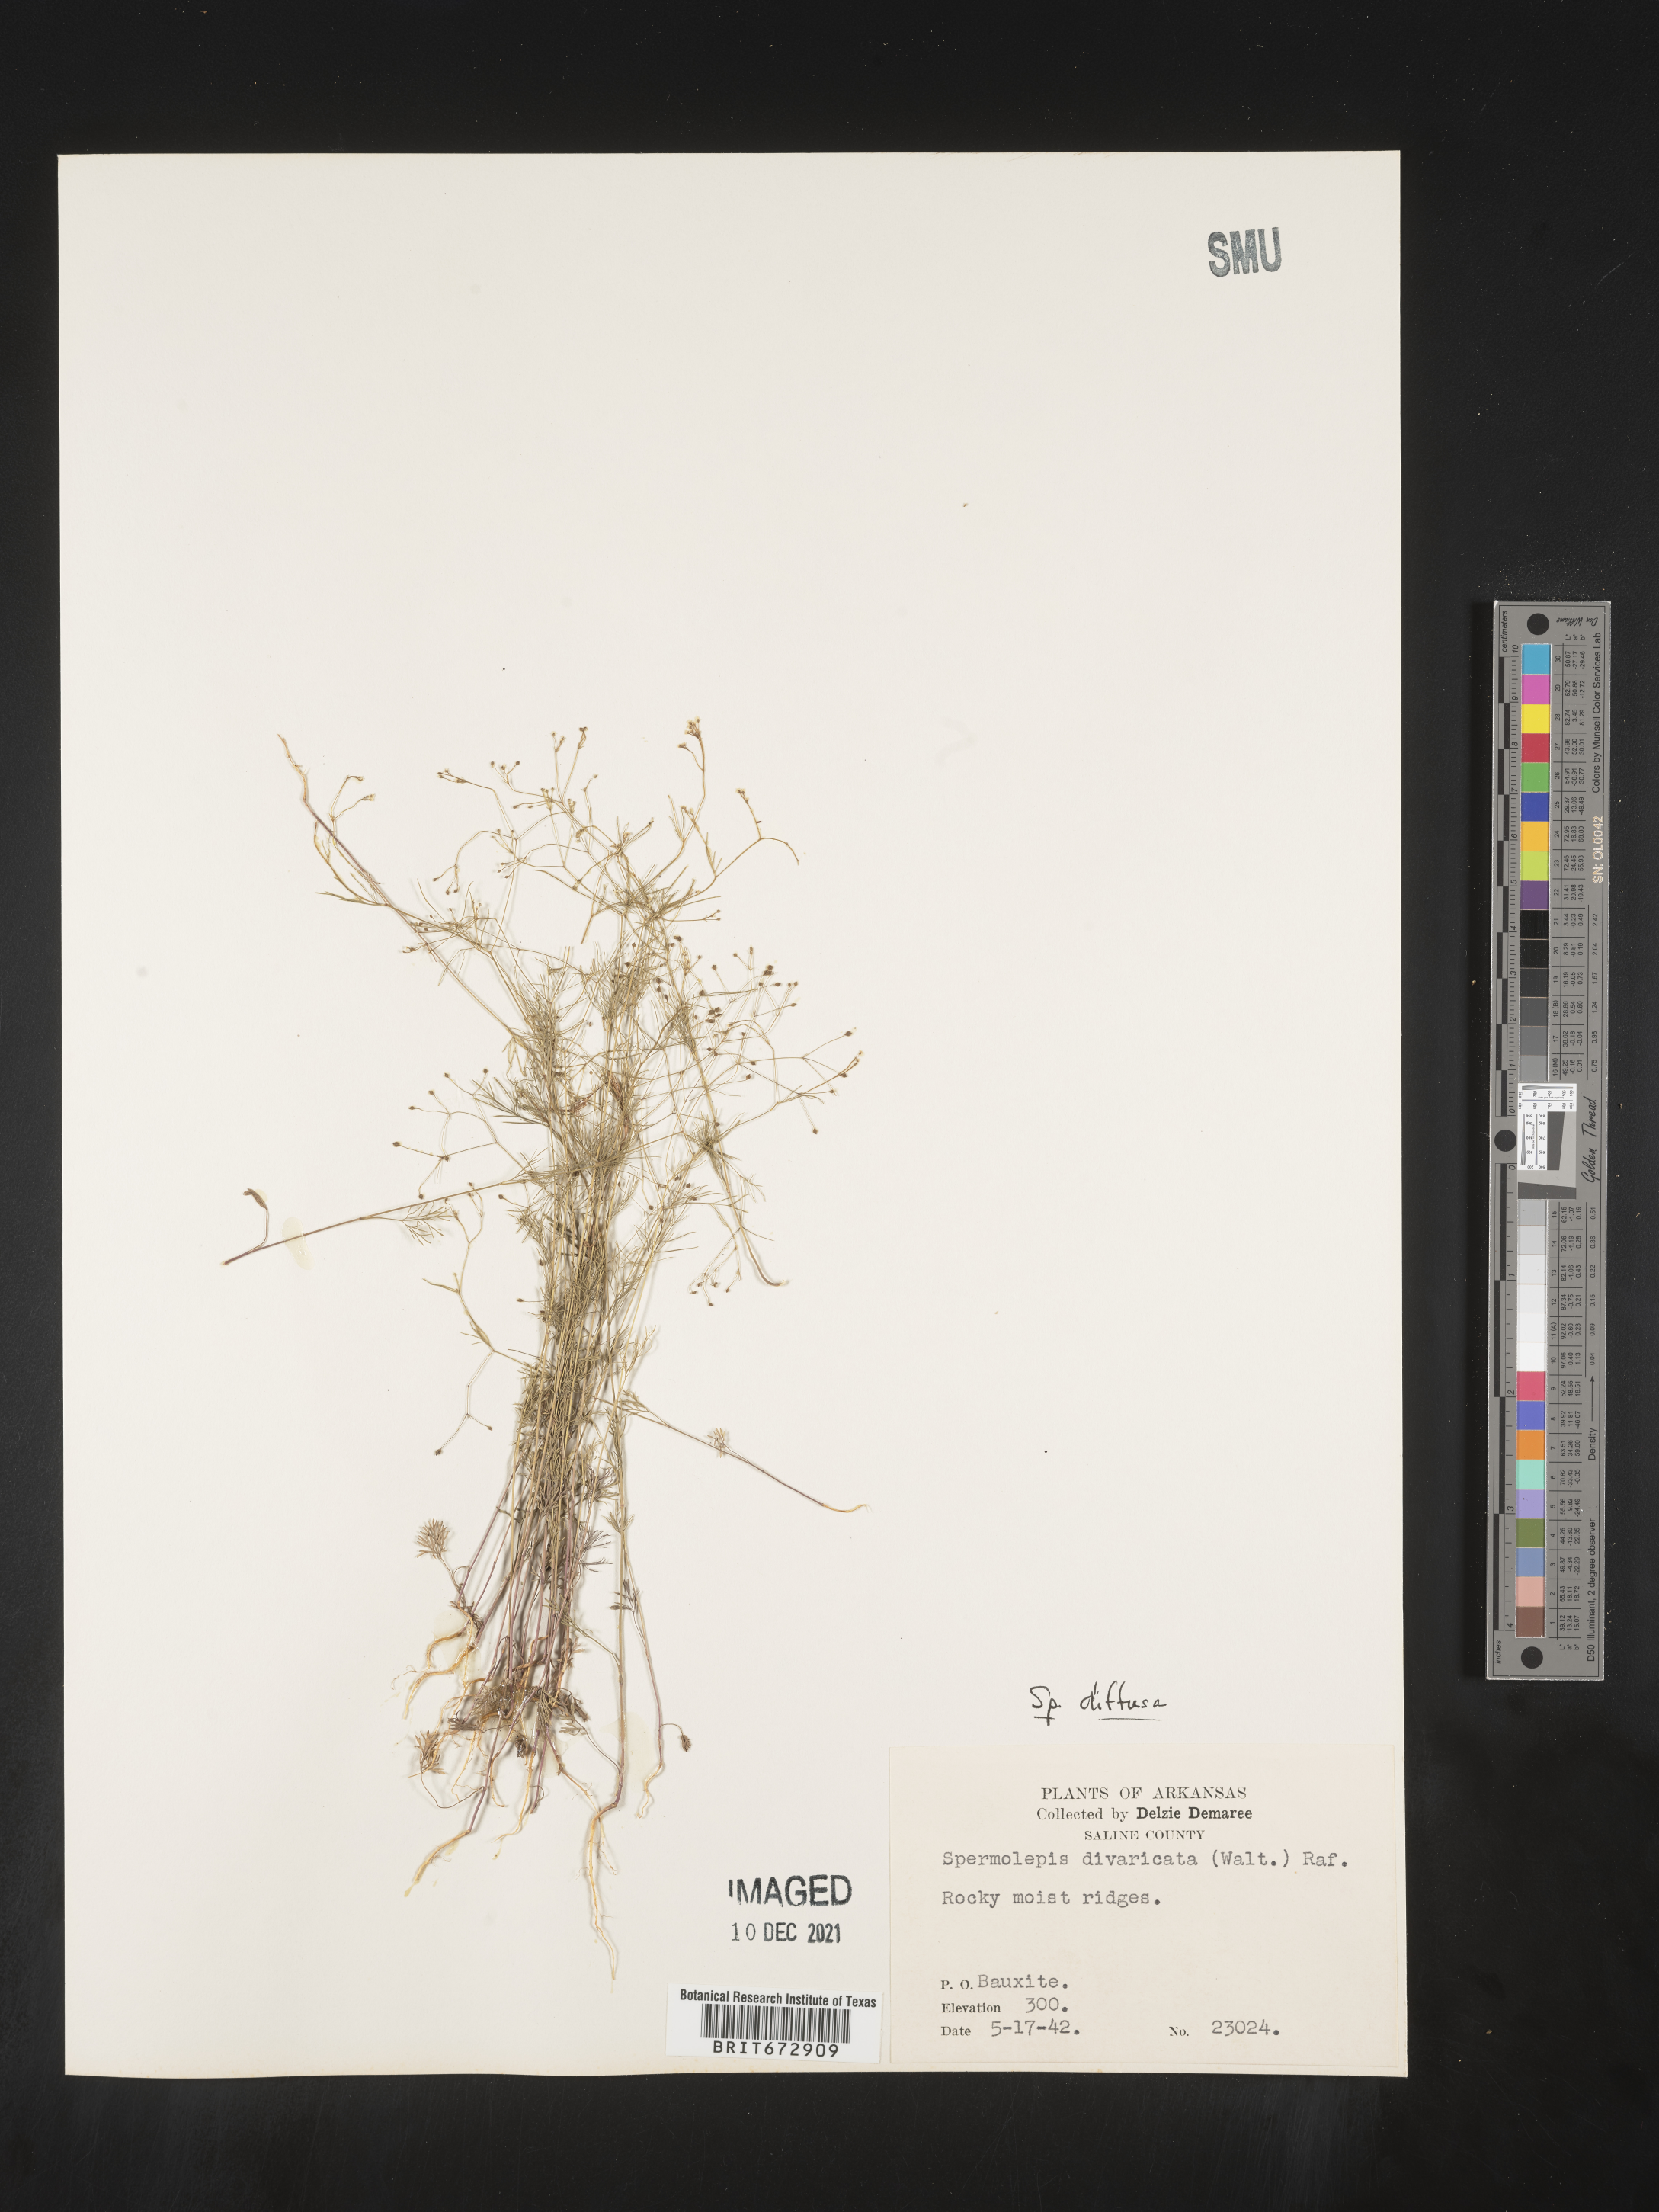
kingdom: Plantae
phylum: Tracheophyta
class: Magnoliopsida
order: Apiales
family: Apiaceae
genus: Spermolepis
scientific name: Spermolepis diffusa
